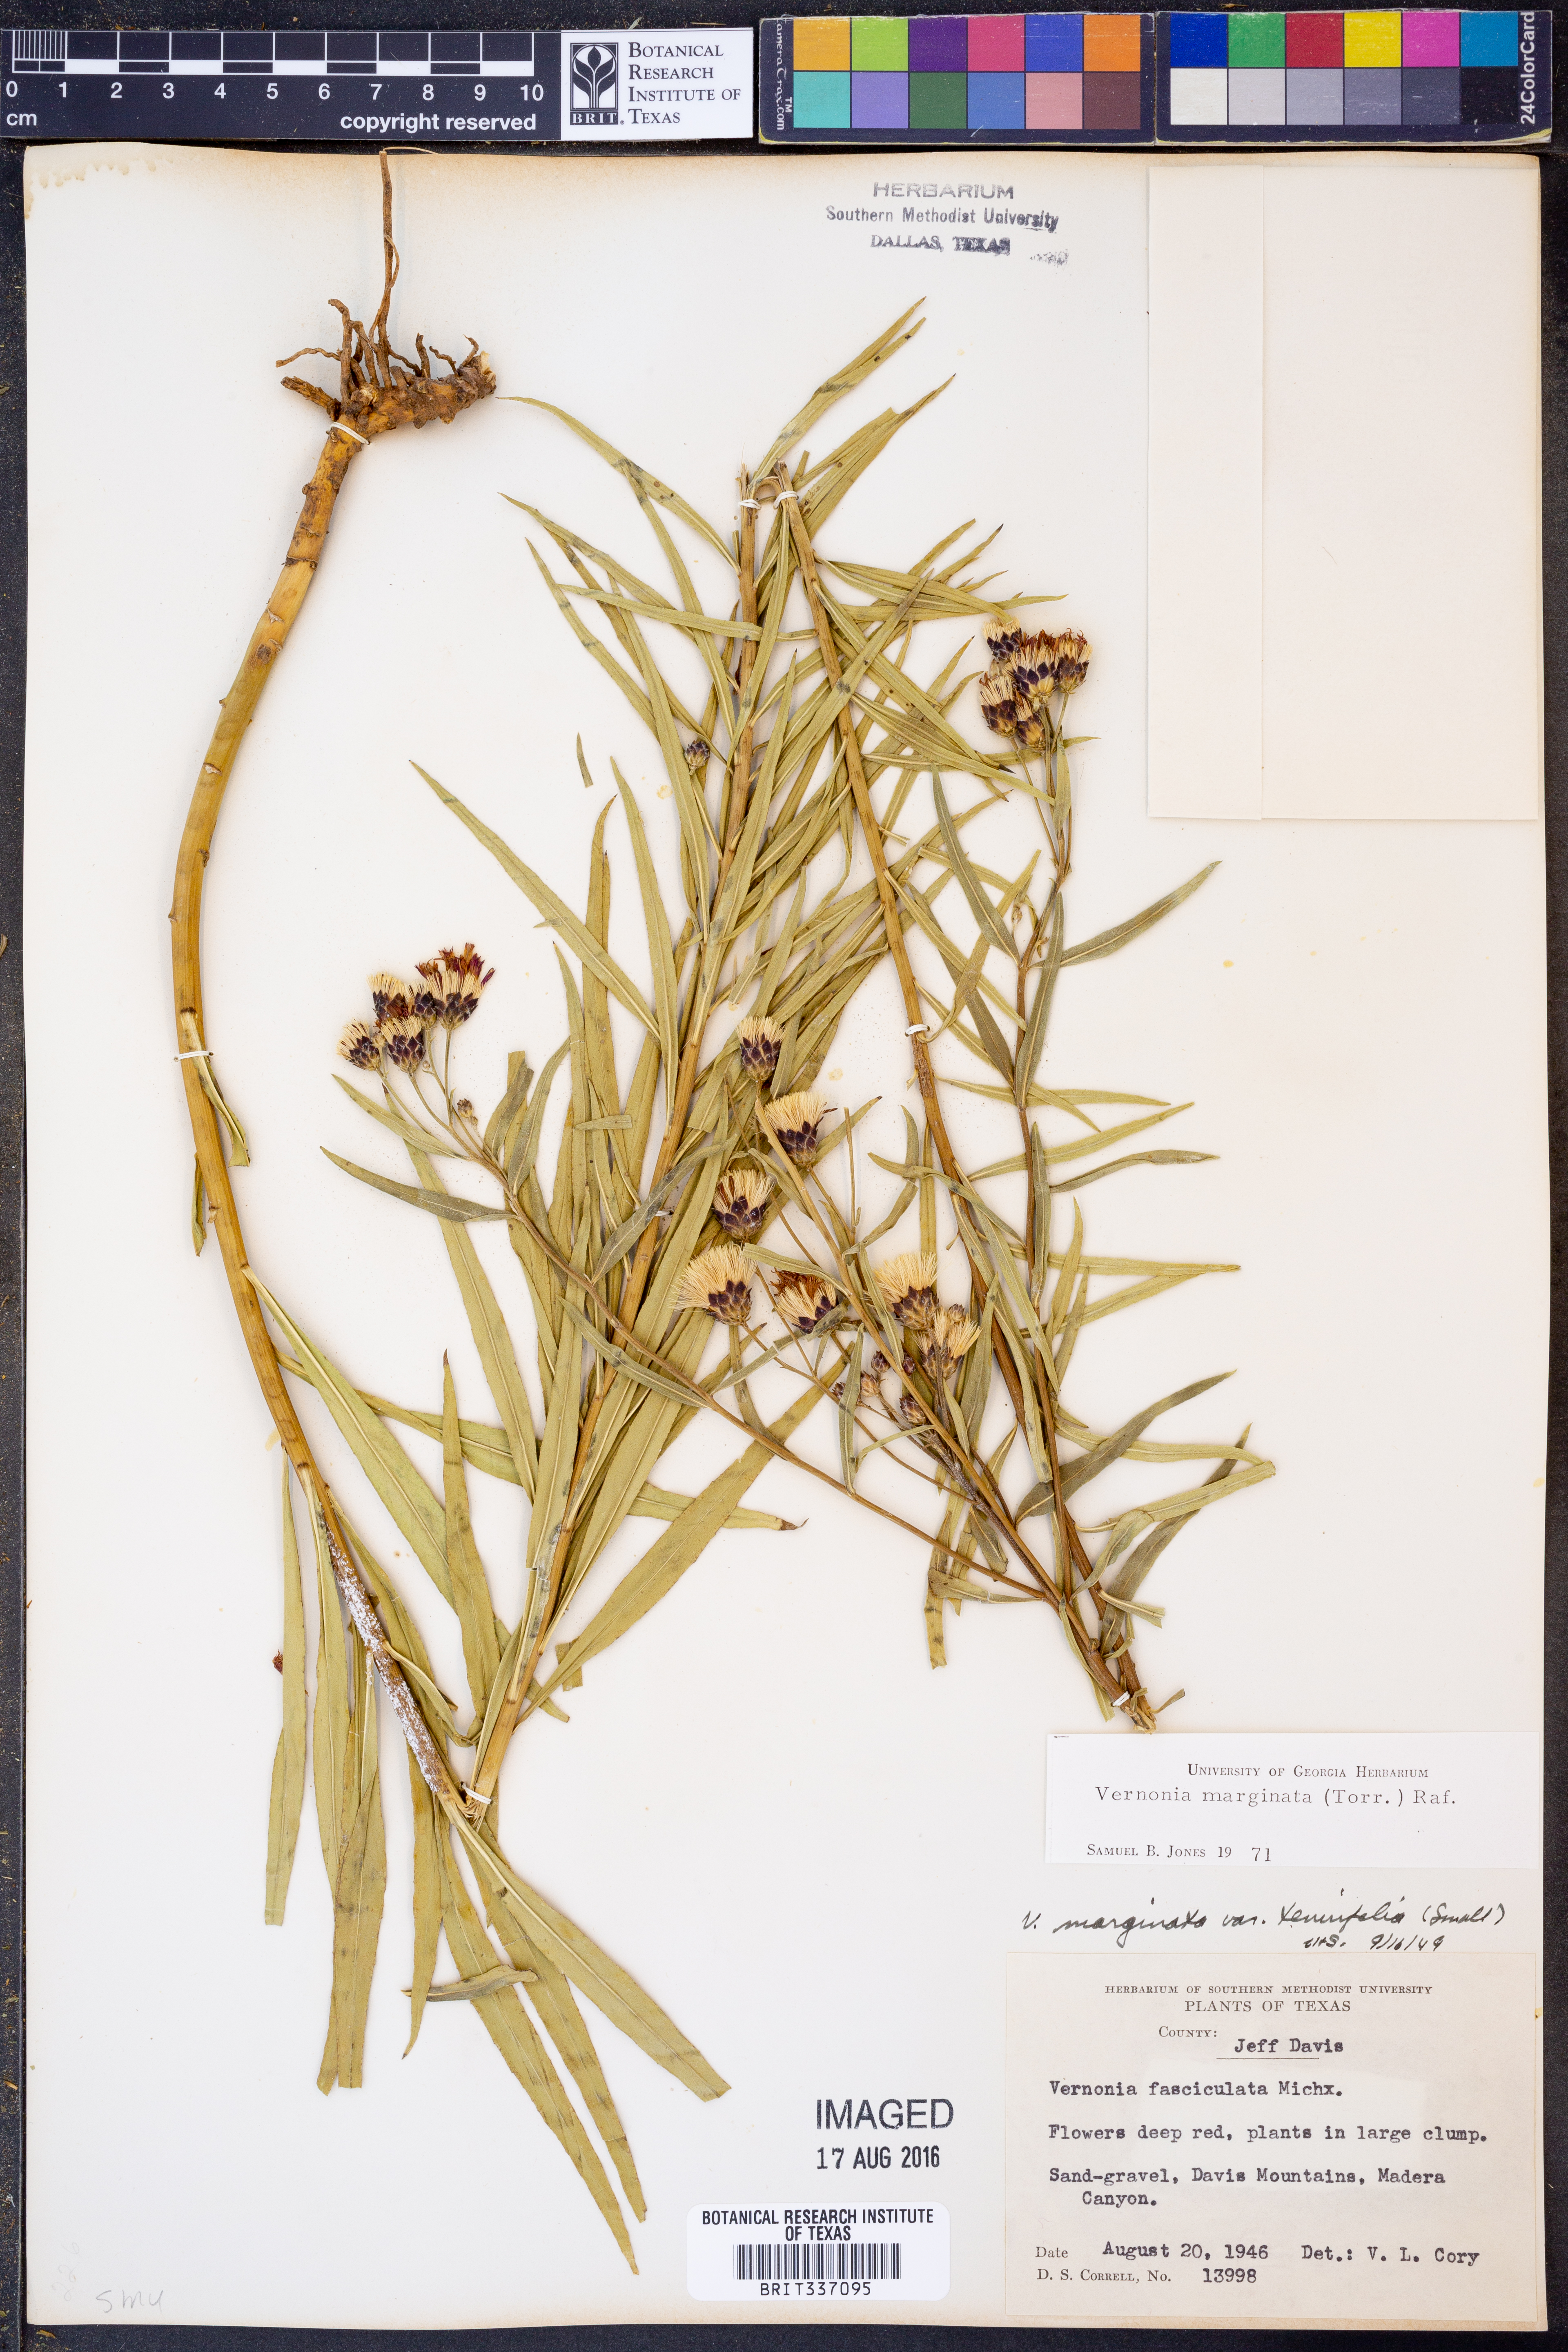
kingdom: Plantae
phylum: Tracheophyta
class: Magnoliopsida
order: Asterales
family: Asteraceae
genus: Vernonia
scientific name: Vernonia marginata
